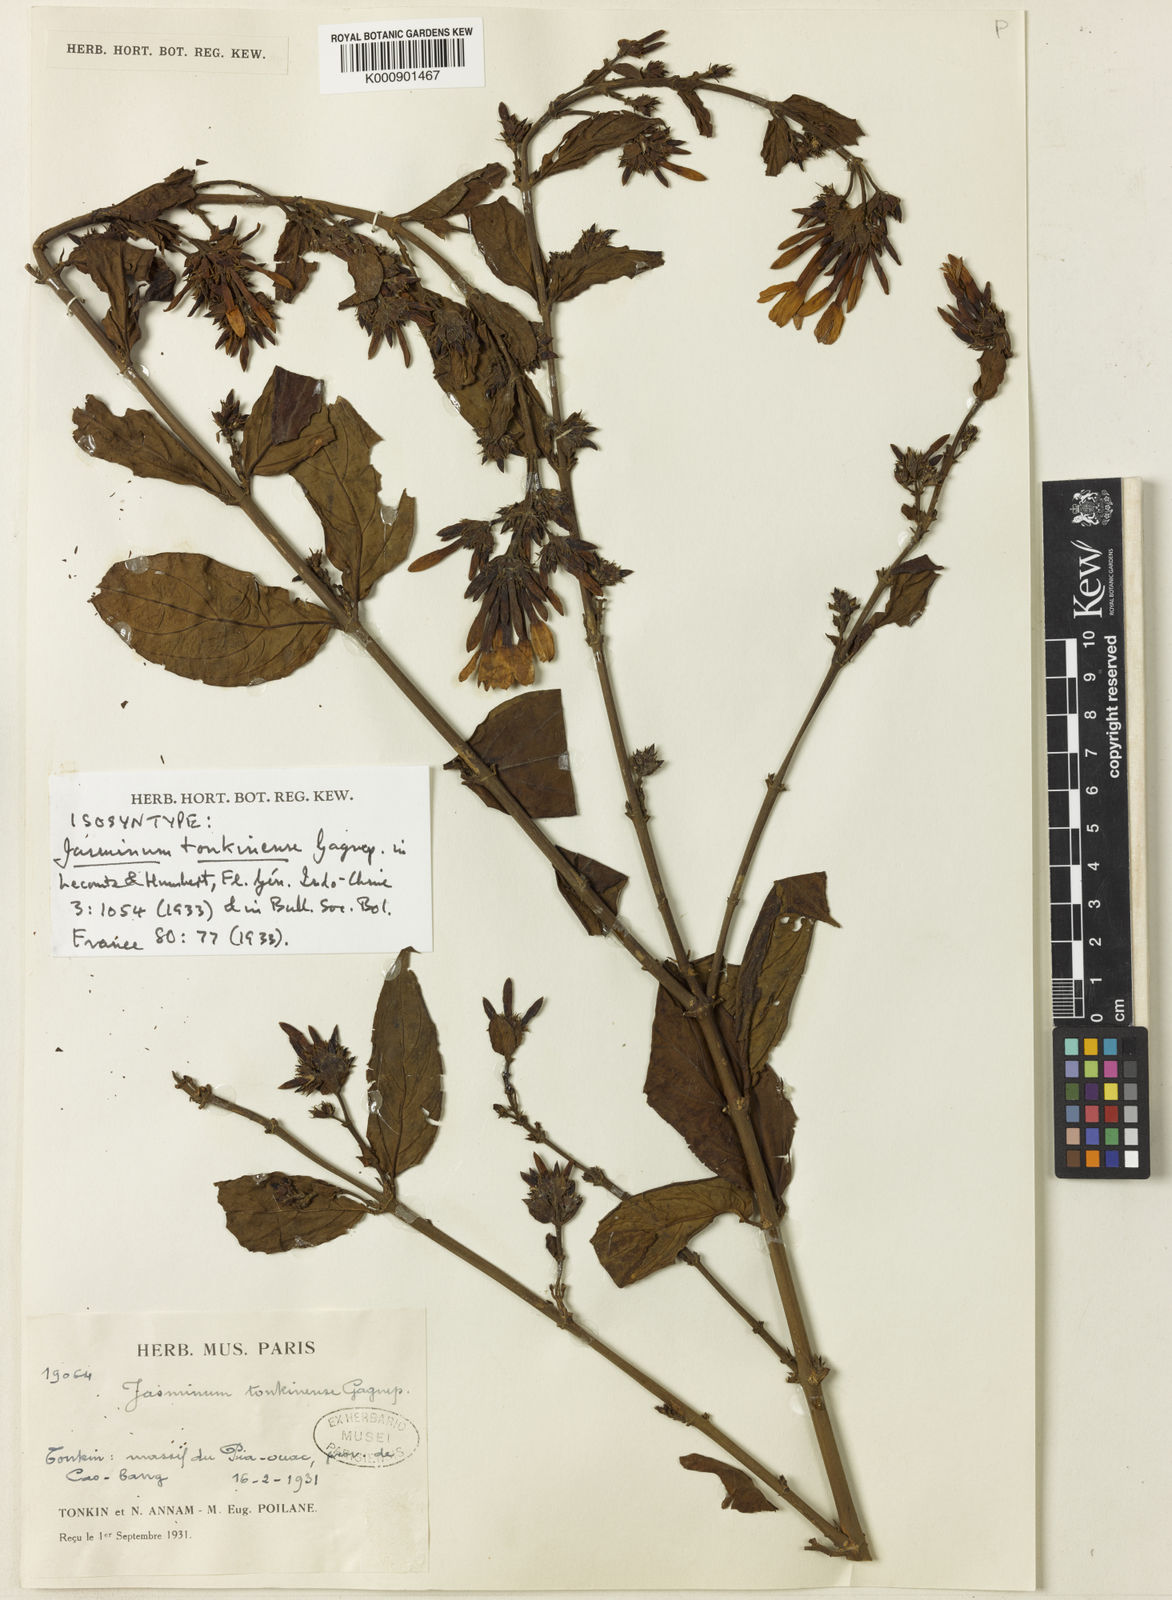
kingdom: Plantae
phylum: Tracheophyta
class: Magnoliopsida
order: Lamiales
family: Oleaceae
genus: Jasminum
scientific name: Jasminum
